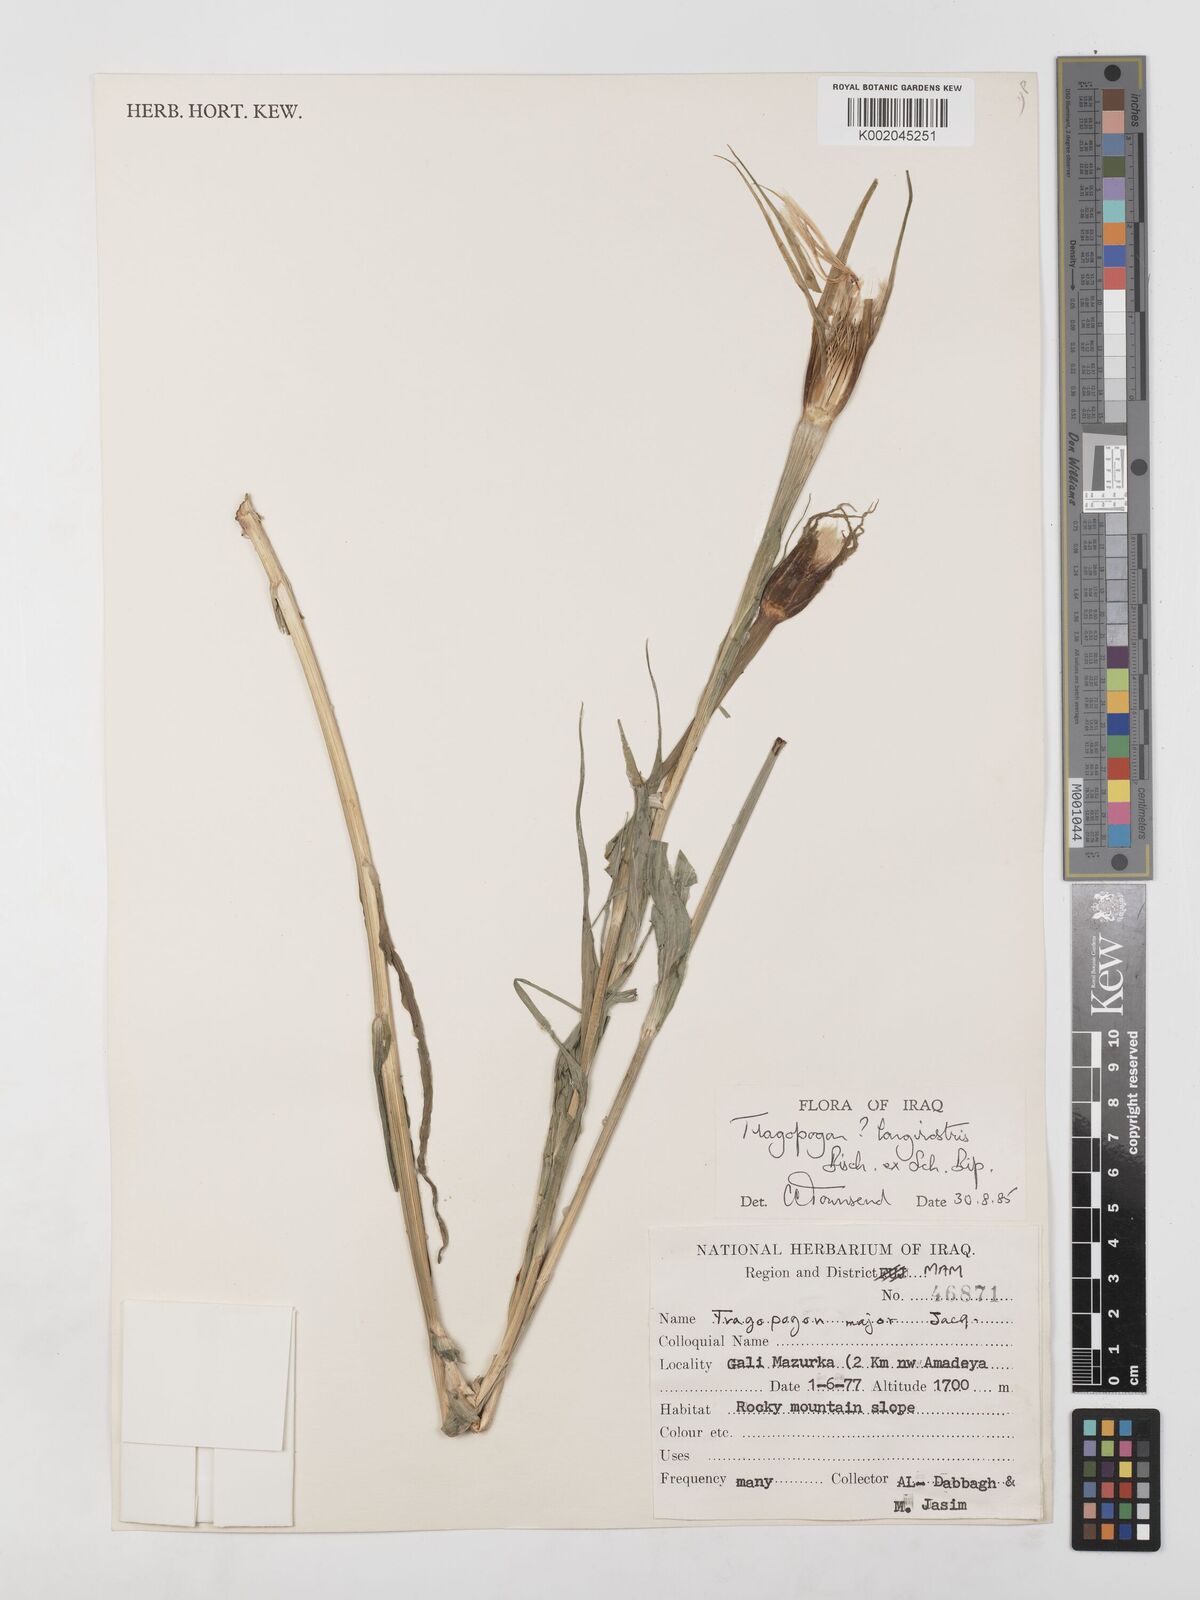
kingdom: Plantae
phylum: Tracheophyta
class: Magnoliopsida
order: Asterales
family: Asteraceae
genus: Tragopogon
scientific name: Tragopogon coelesyriacus
